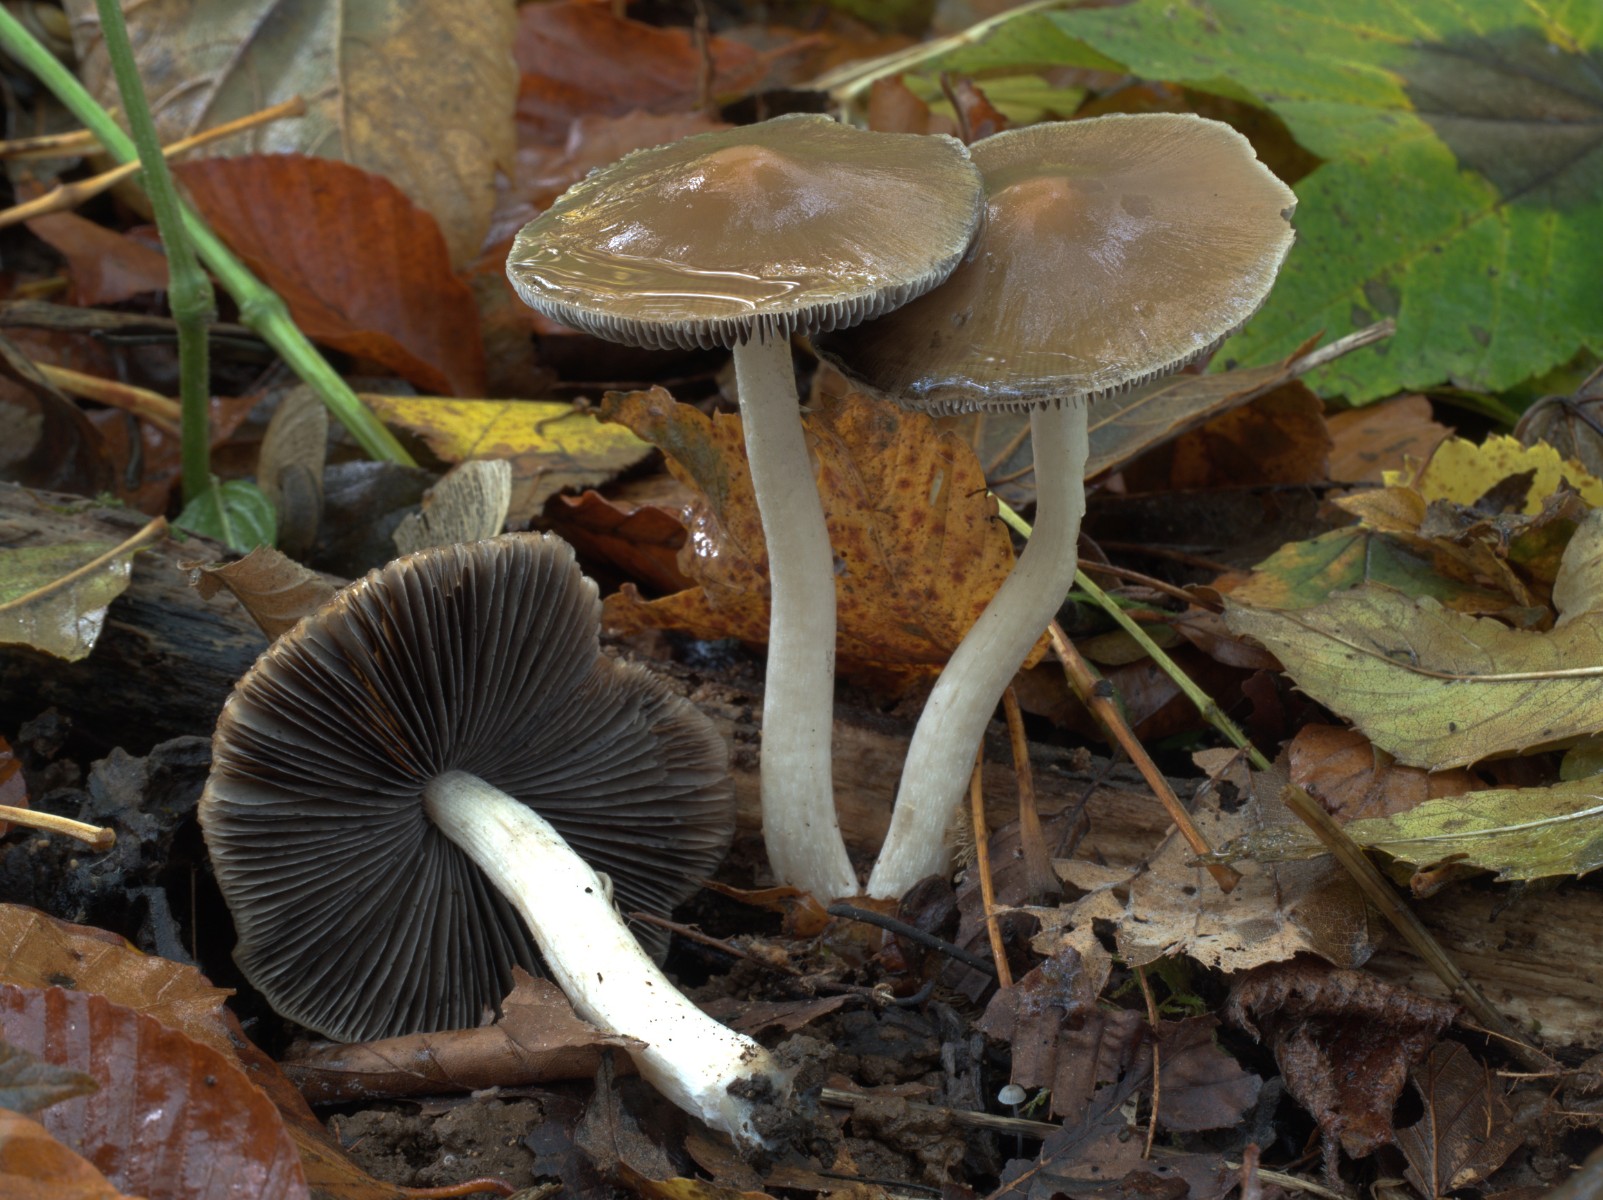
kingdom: Fungi
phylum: Basidiomycota
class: Agaricomycetes
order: Agaricales
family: Psathyrellaceae
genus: Psathyrella
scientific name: Psathyrella fusca
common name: gråbladet mørkhat
